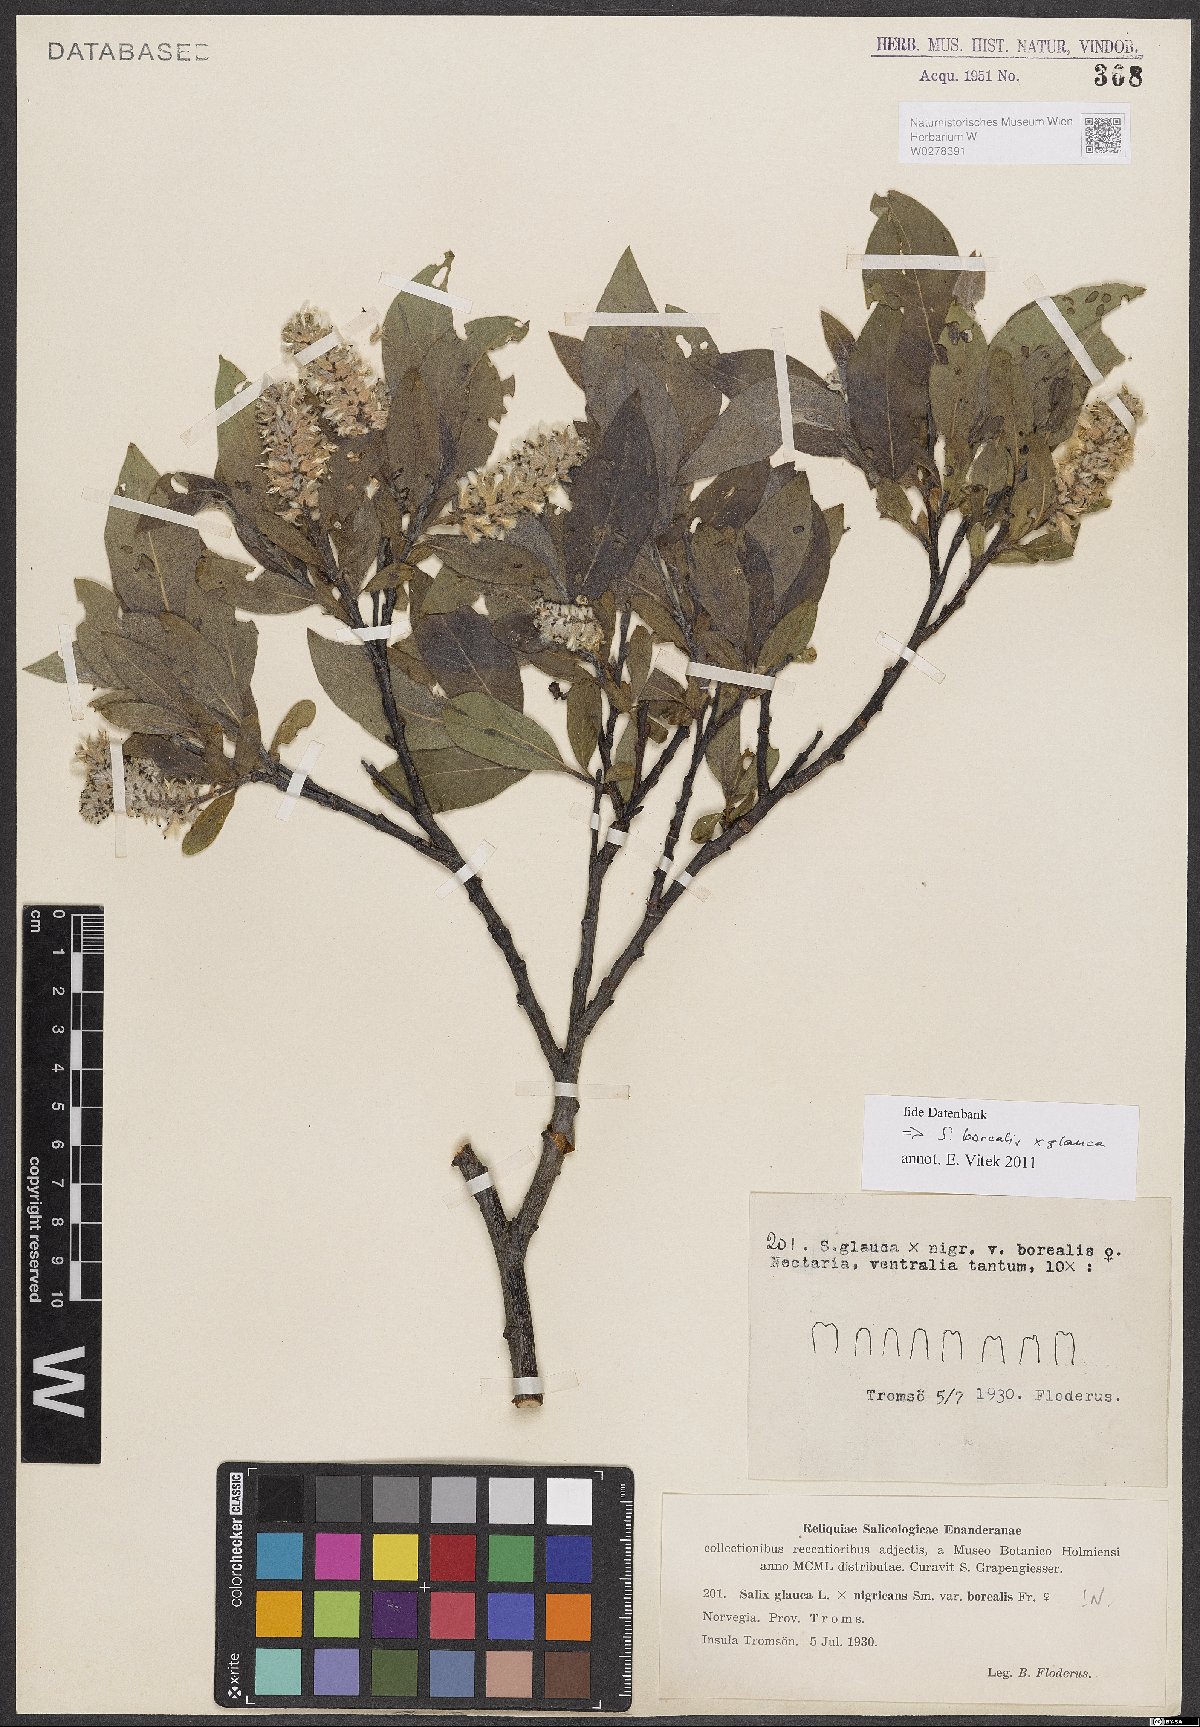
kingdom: Plantae
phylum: Tracheophyta
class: Magnoliopsida
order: Malpighiales
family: Salicaceae
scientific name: Salicaceae
